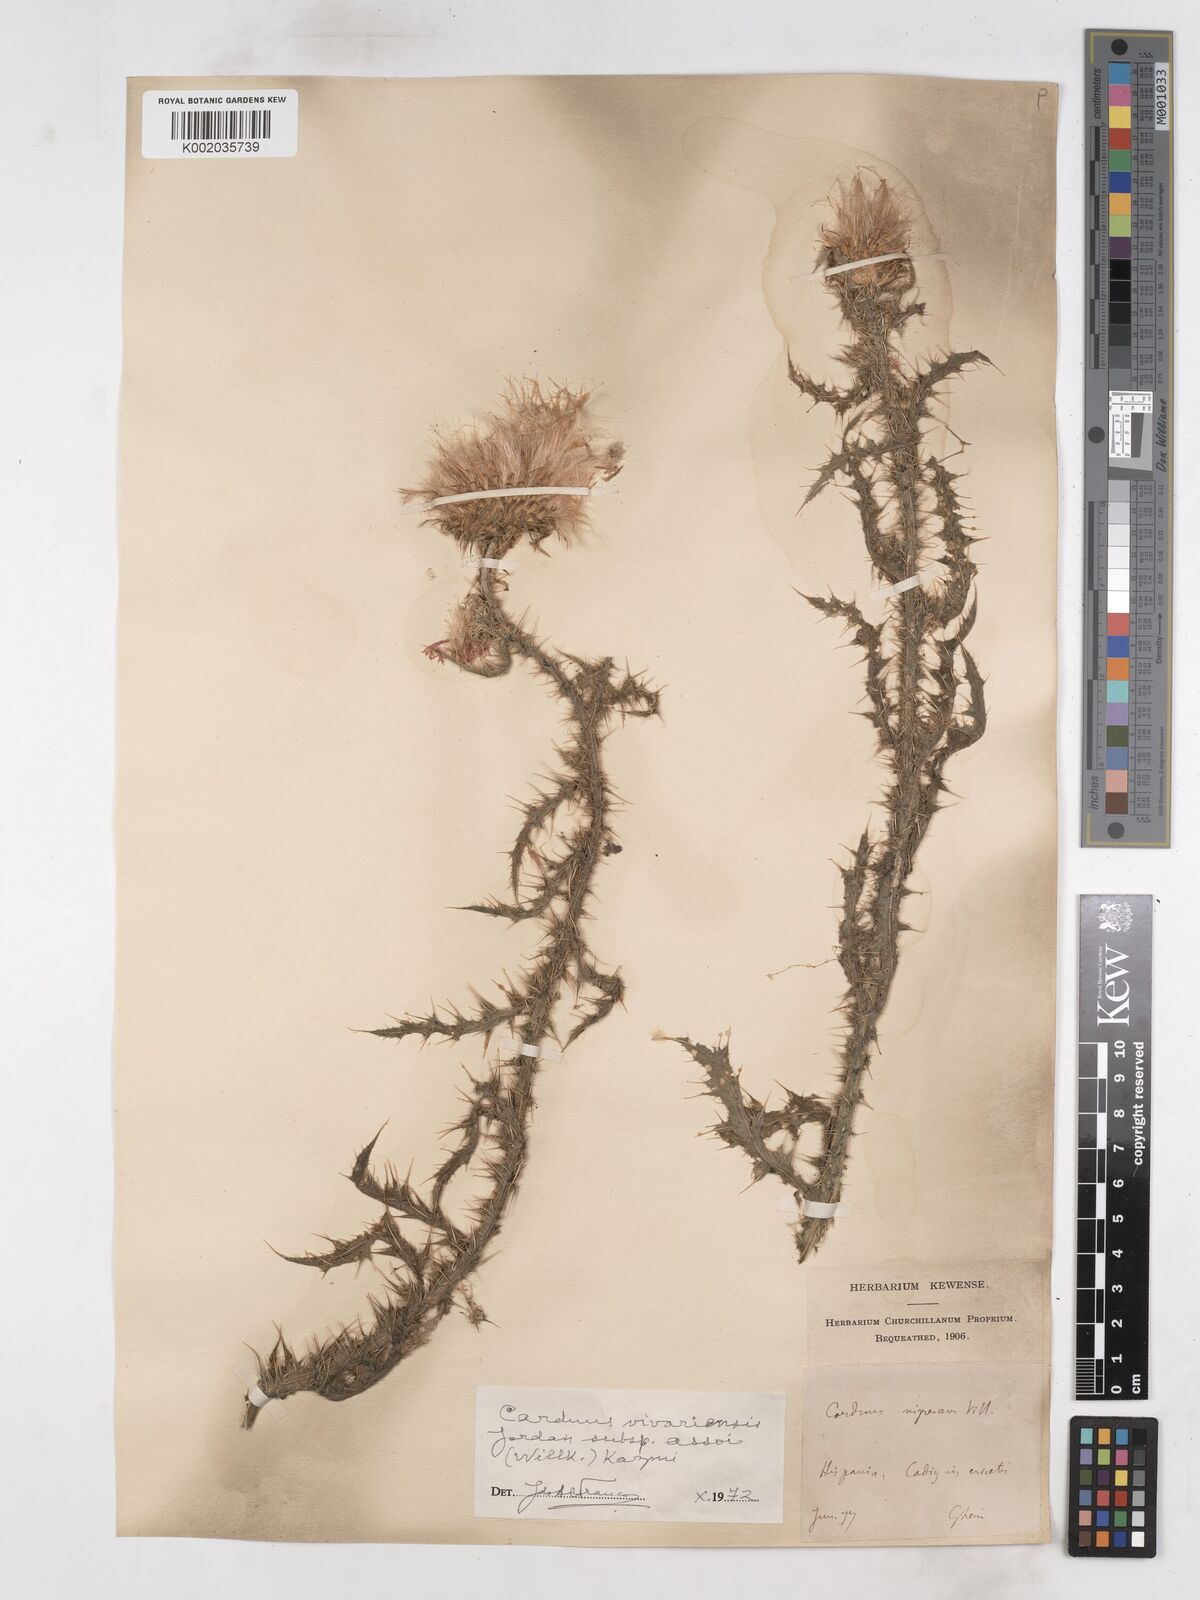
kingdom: Plantae
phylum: Tracheophyta
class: Magnoliopsida
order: Asterales
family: Asteraceae
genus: Carduus
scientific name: Carduus nigrescens
